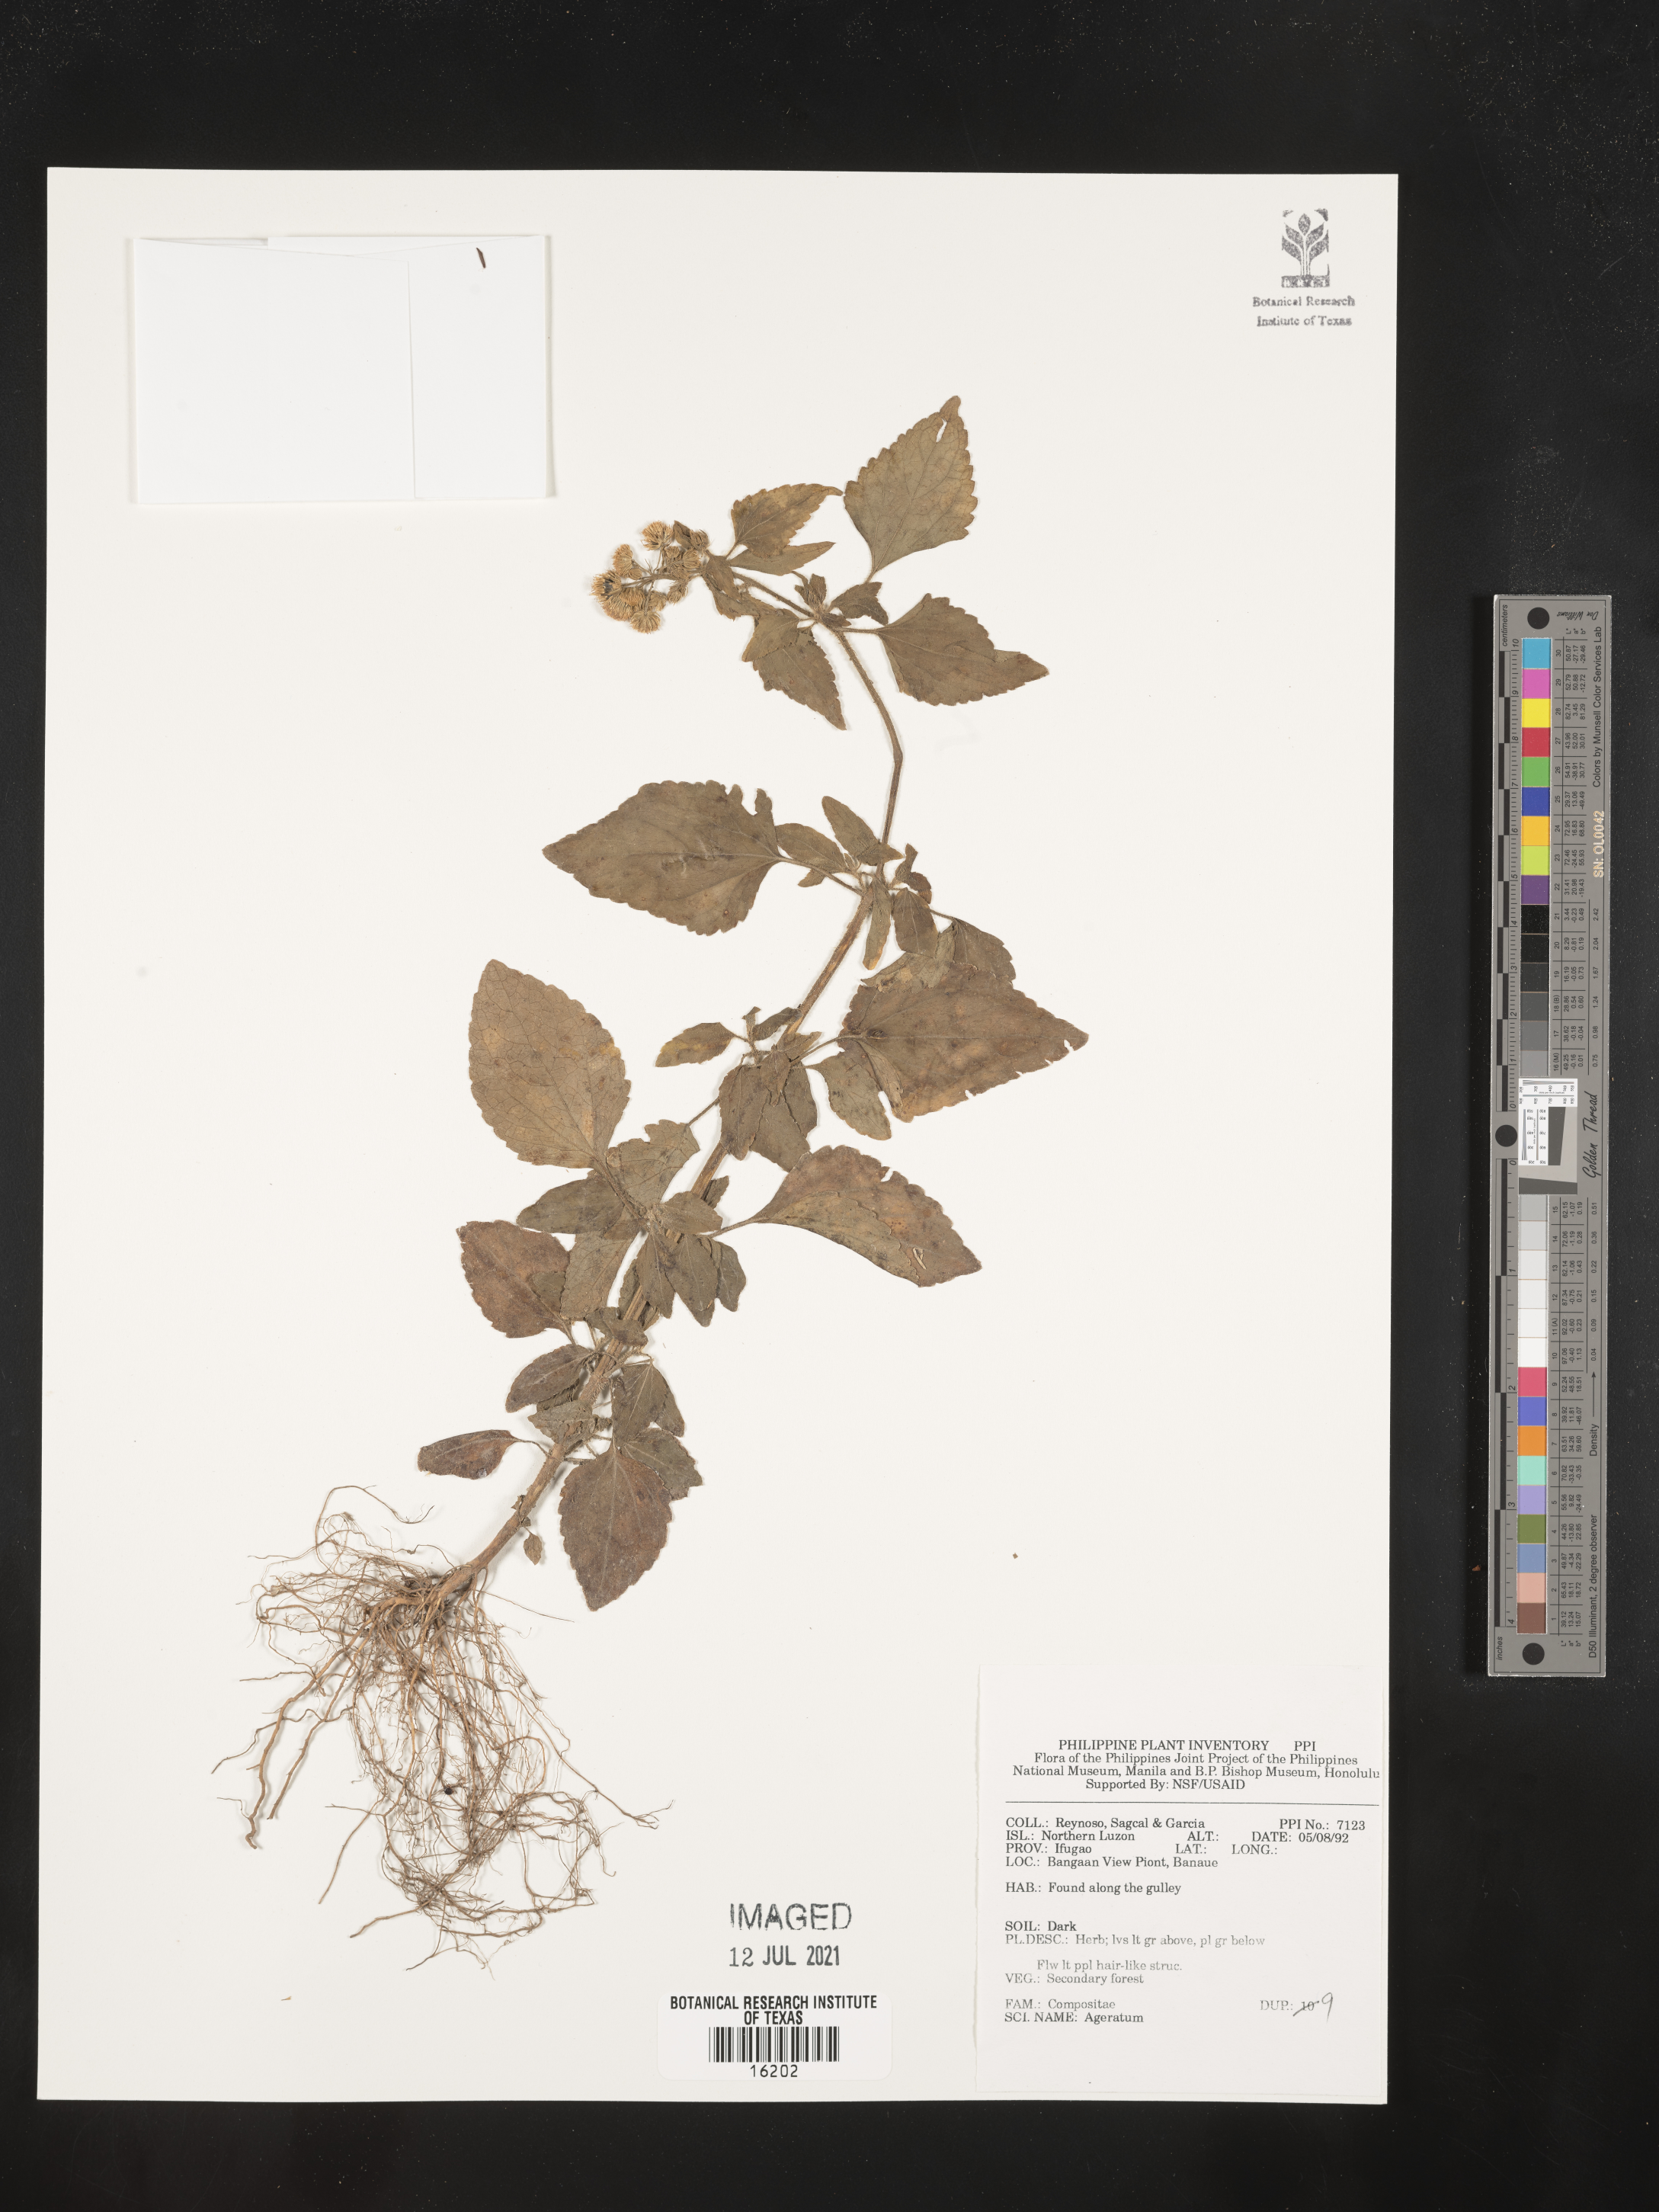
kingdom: Plantae
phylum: Tracheophyta
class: Magnoliopsida
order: Asterales
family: Asteraceae
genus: Ageratum
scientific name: Ageratum
